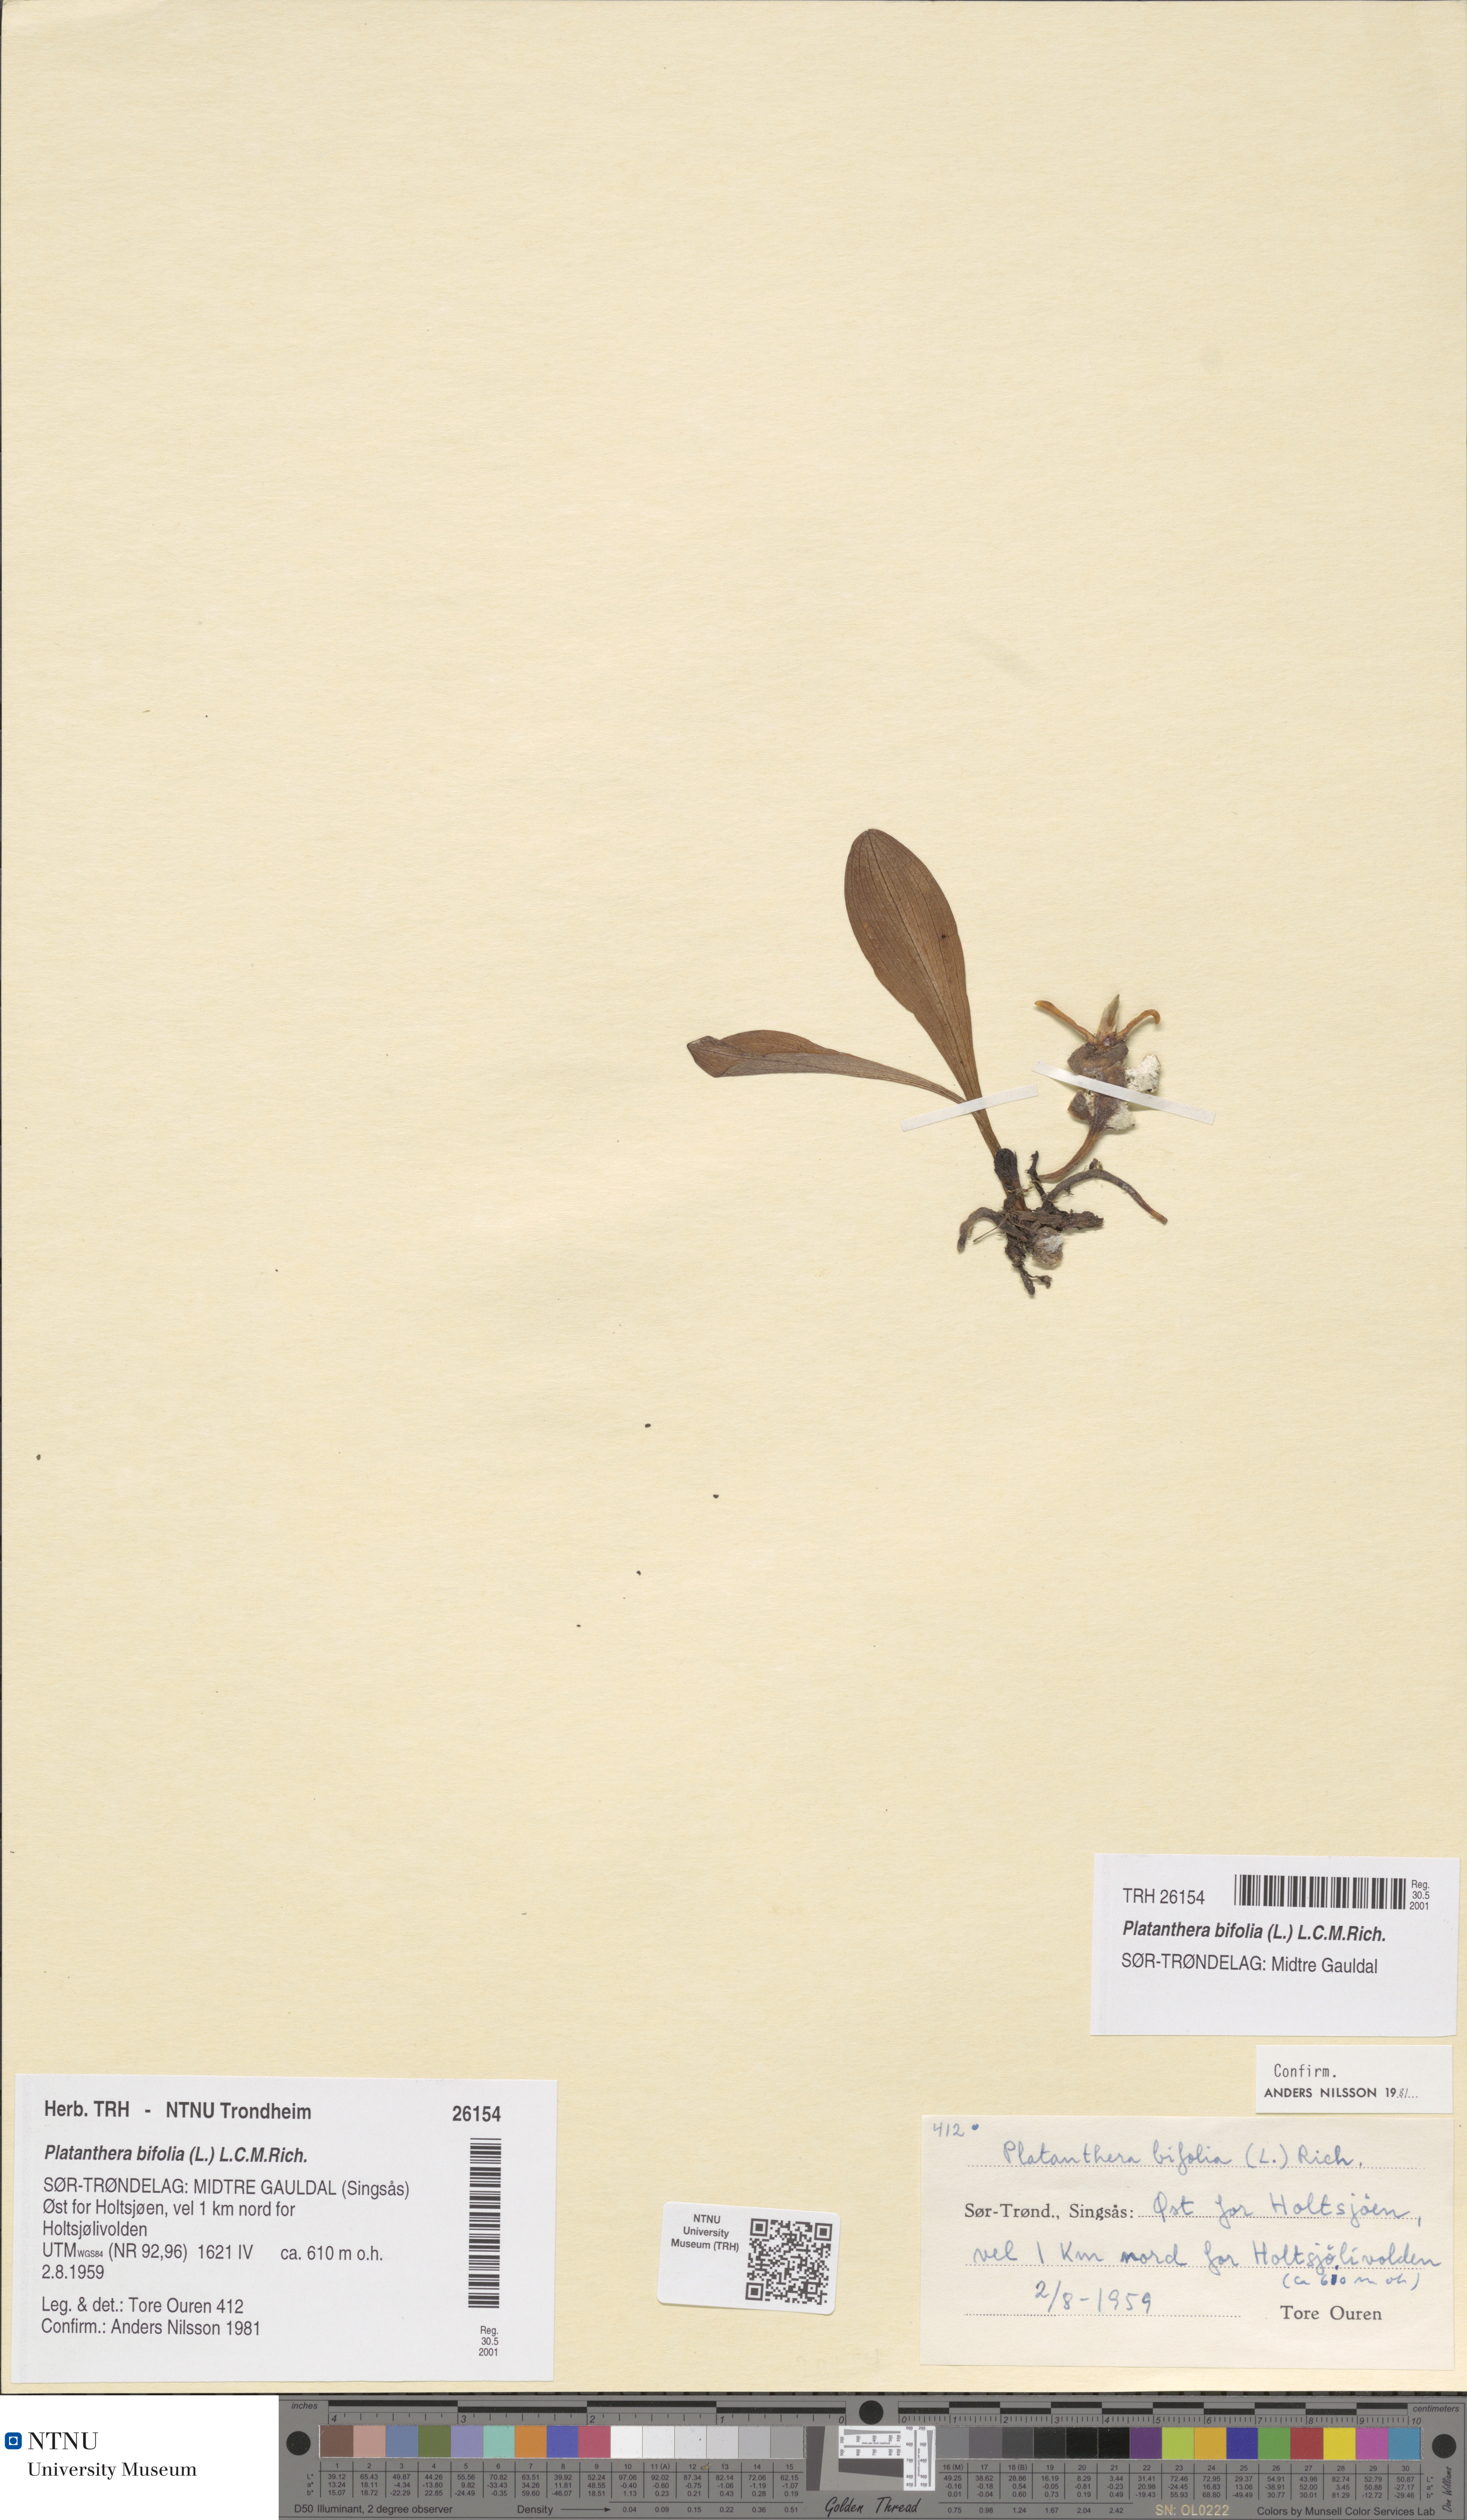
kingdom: Plantae
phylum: Tracheophyta
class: Liliopsida
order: Asparagales
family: Orchidaceae
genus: Platanthera
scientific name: Platanthera bifolia
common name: Lesser butterfly-orchid
